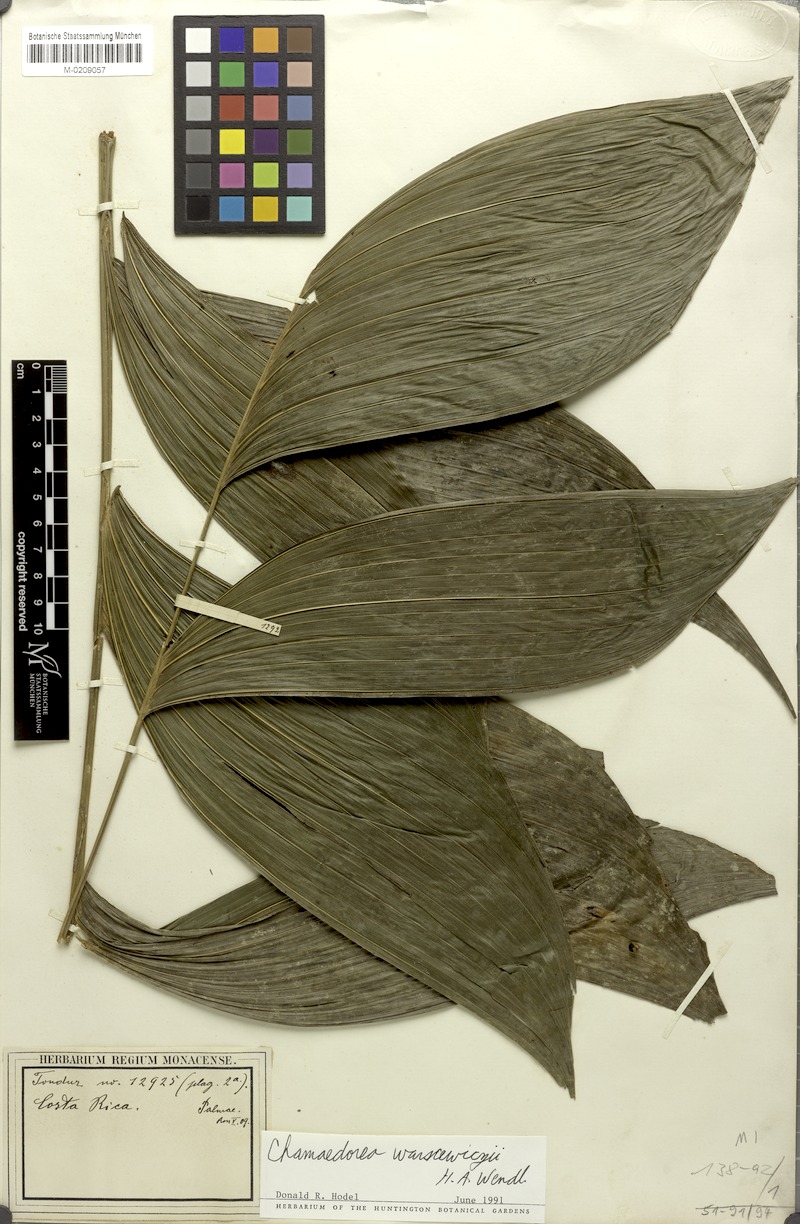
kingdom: Plantae
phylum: Tracheophyta
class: Liliopsida
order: Arecales
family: Arecaceae
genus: Chamaedorea
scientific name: Chamaedorea warscewiczii
